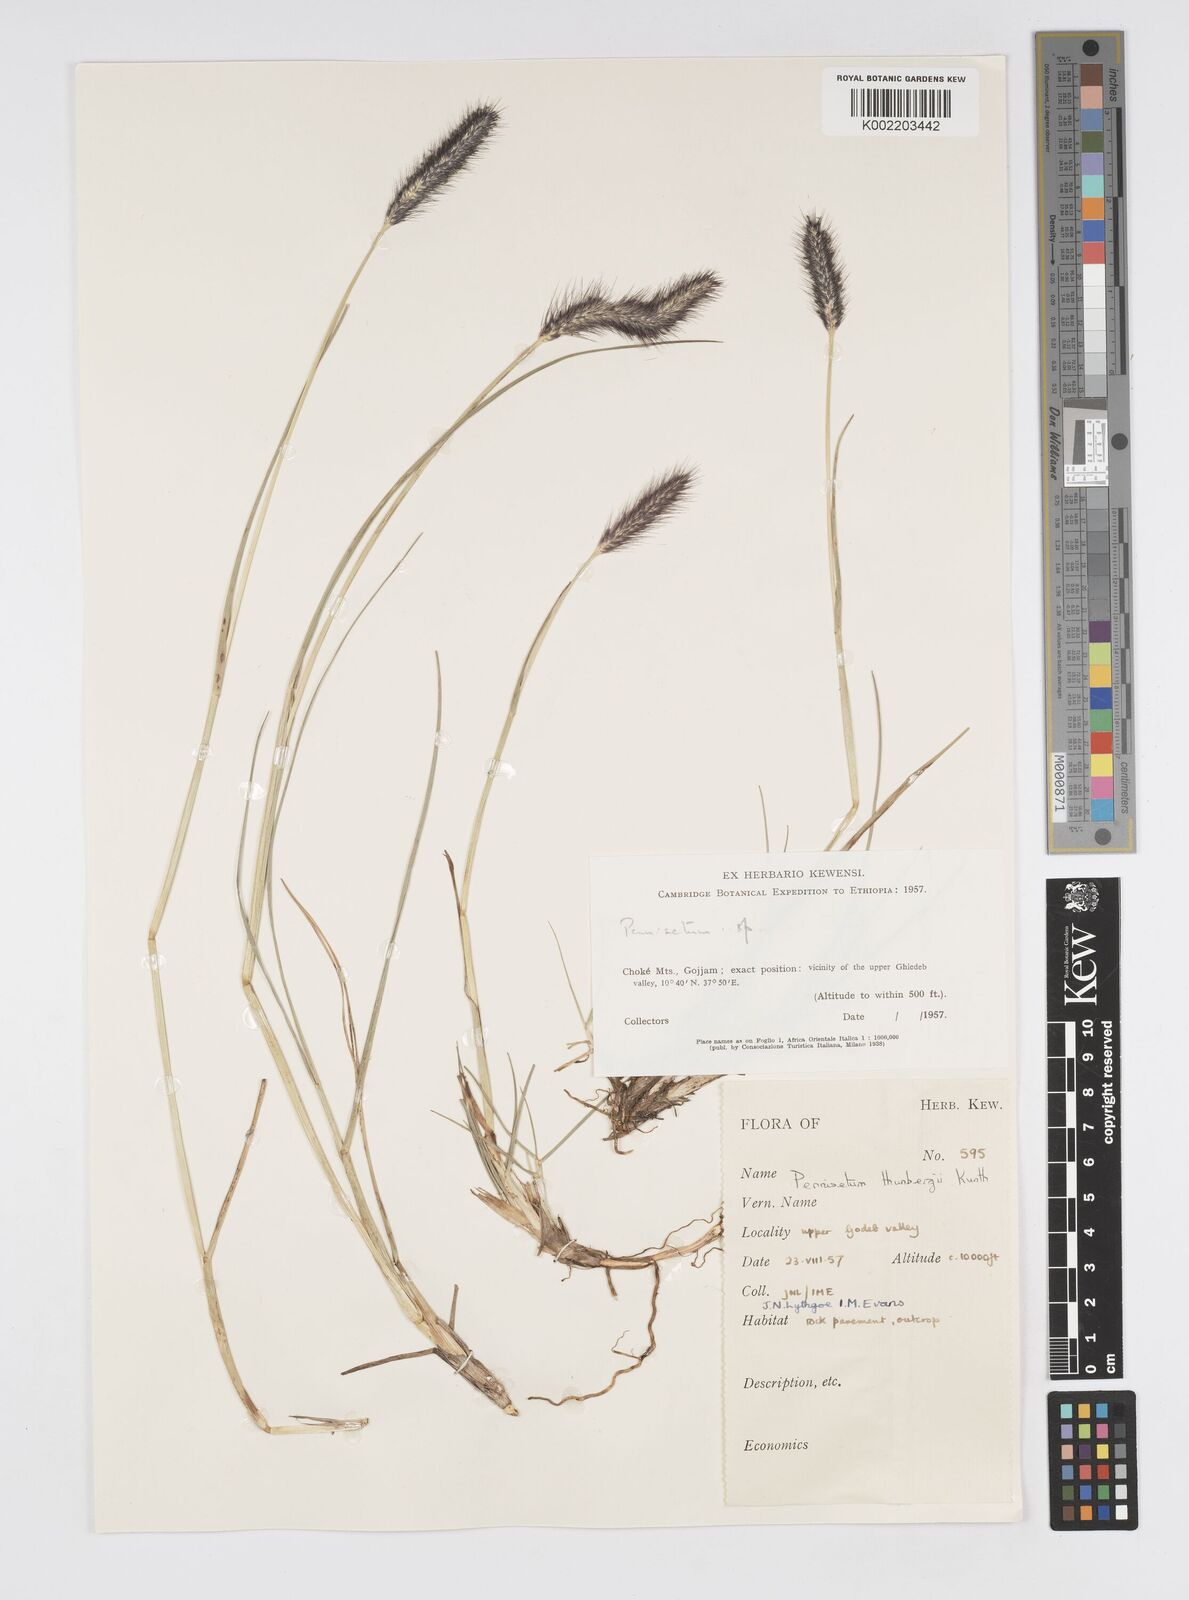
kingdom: Plantae
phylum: Tracheophyta
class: Liliopsida
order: Poales
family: Poaceae
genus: Cenchrus
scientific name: Cenchrus geniculatus
